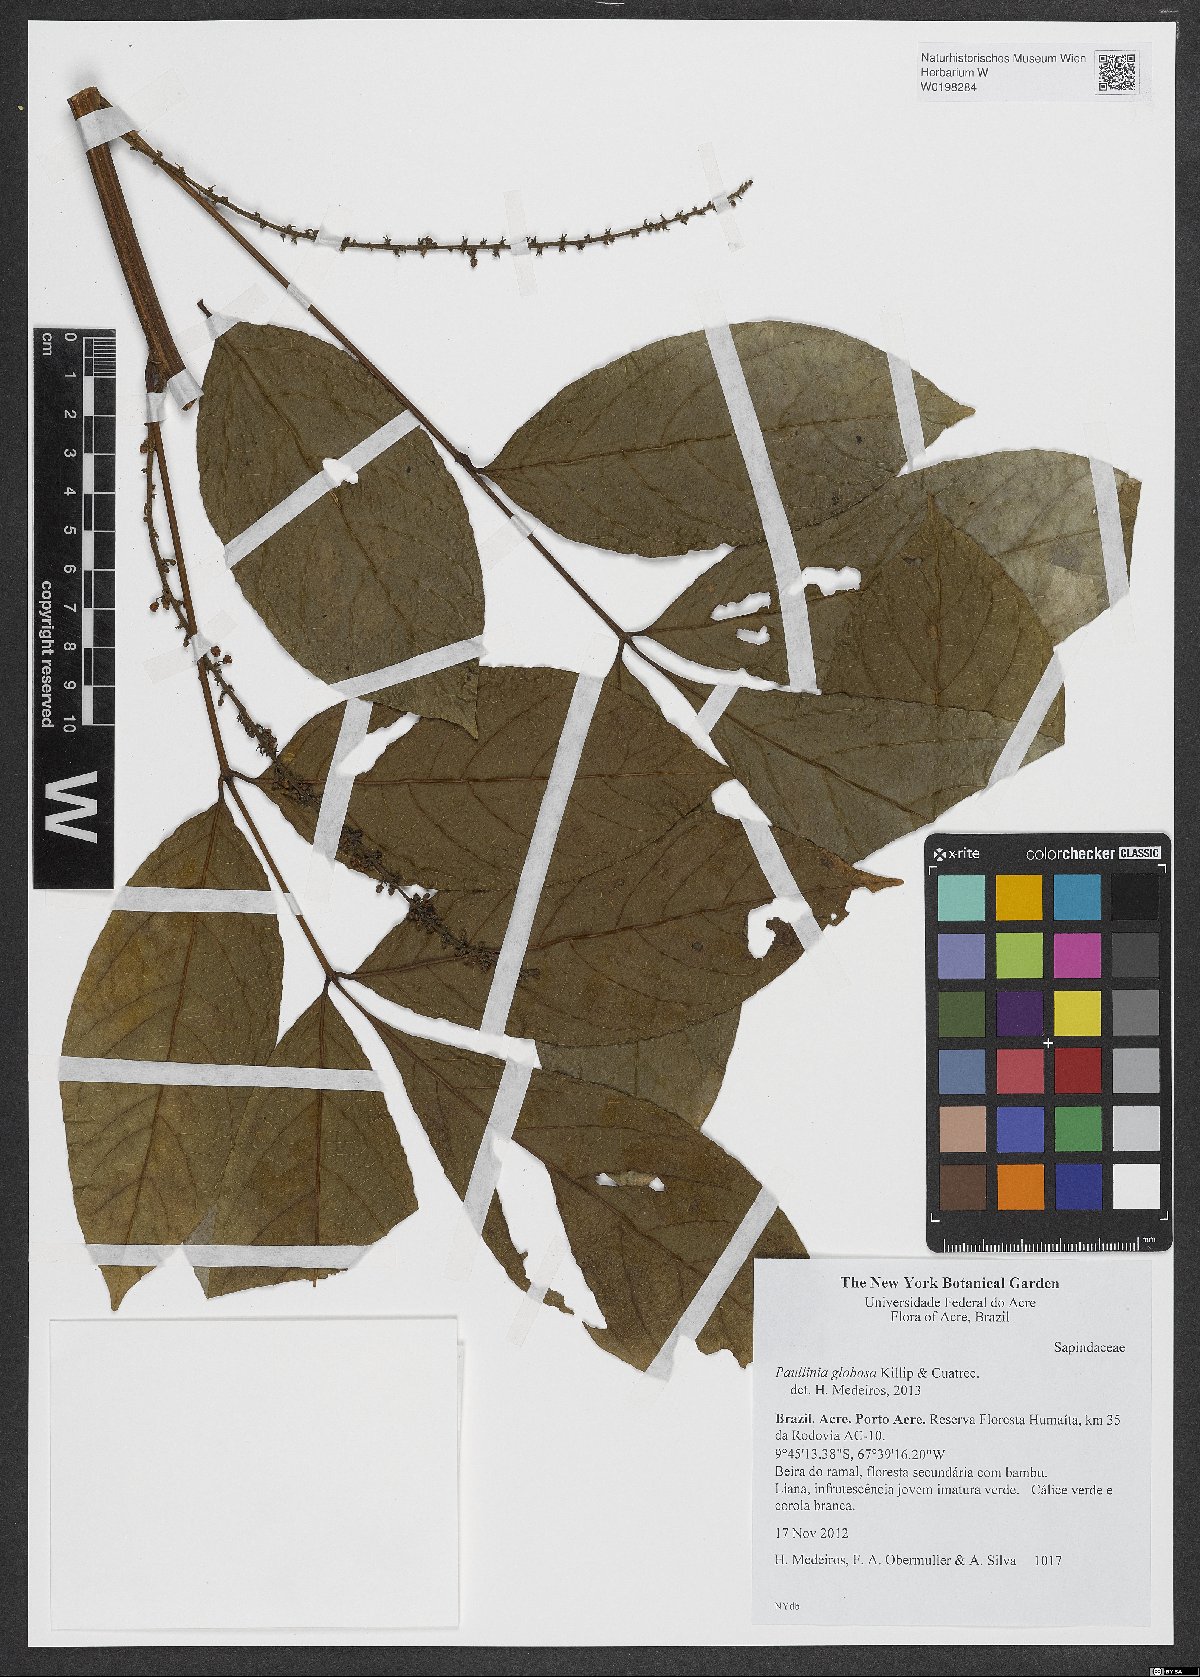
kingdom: Plantae
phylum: Tracheophyta
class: Magnoliopsida
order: Sapindales
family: Sapindaceae
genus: Paullinia
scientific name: Paullinia globosa
